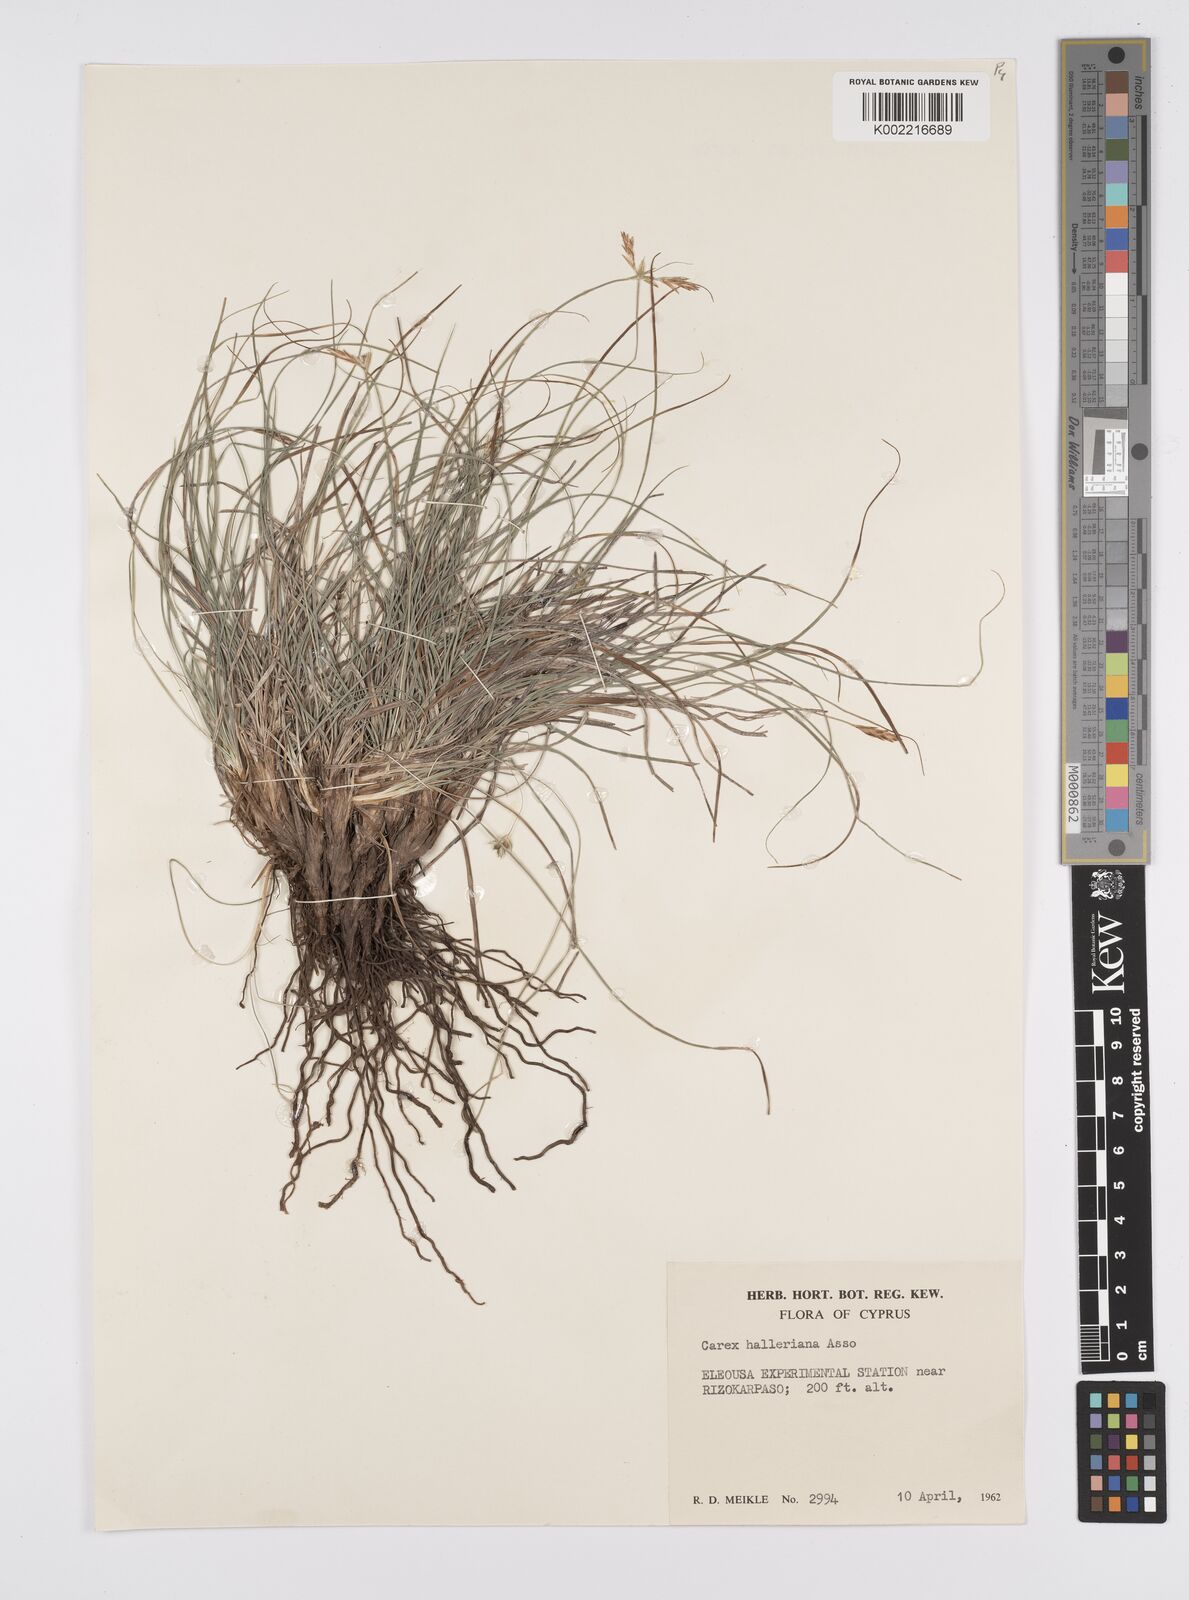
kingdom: Plantae
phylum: Tracheophyta
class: Liliopsida
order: Poales
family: Cyperaceae
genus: Carex
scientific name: Carex halleriana
